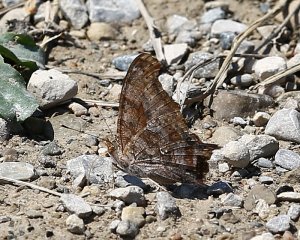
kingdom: Animalia
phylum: Arthropoda
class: Insecta
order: Lepidoptera
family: Nymphalidae
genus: Polygonia
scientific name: Polygonia interrogationis
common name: Question Mark
